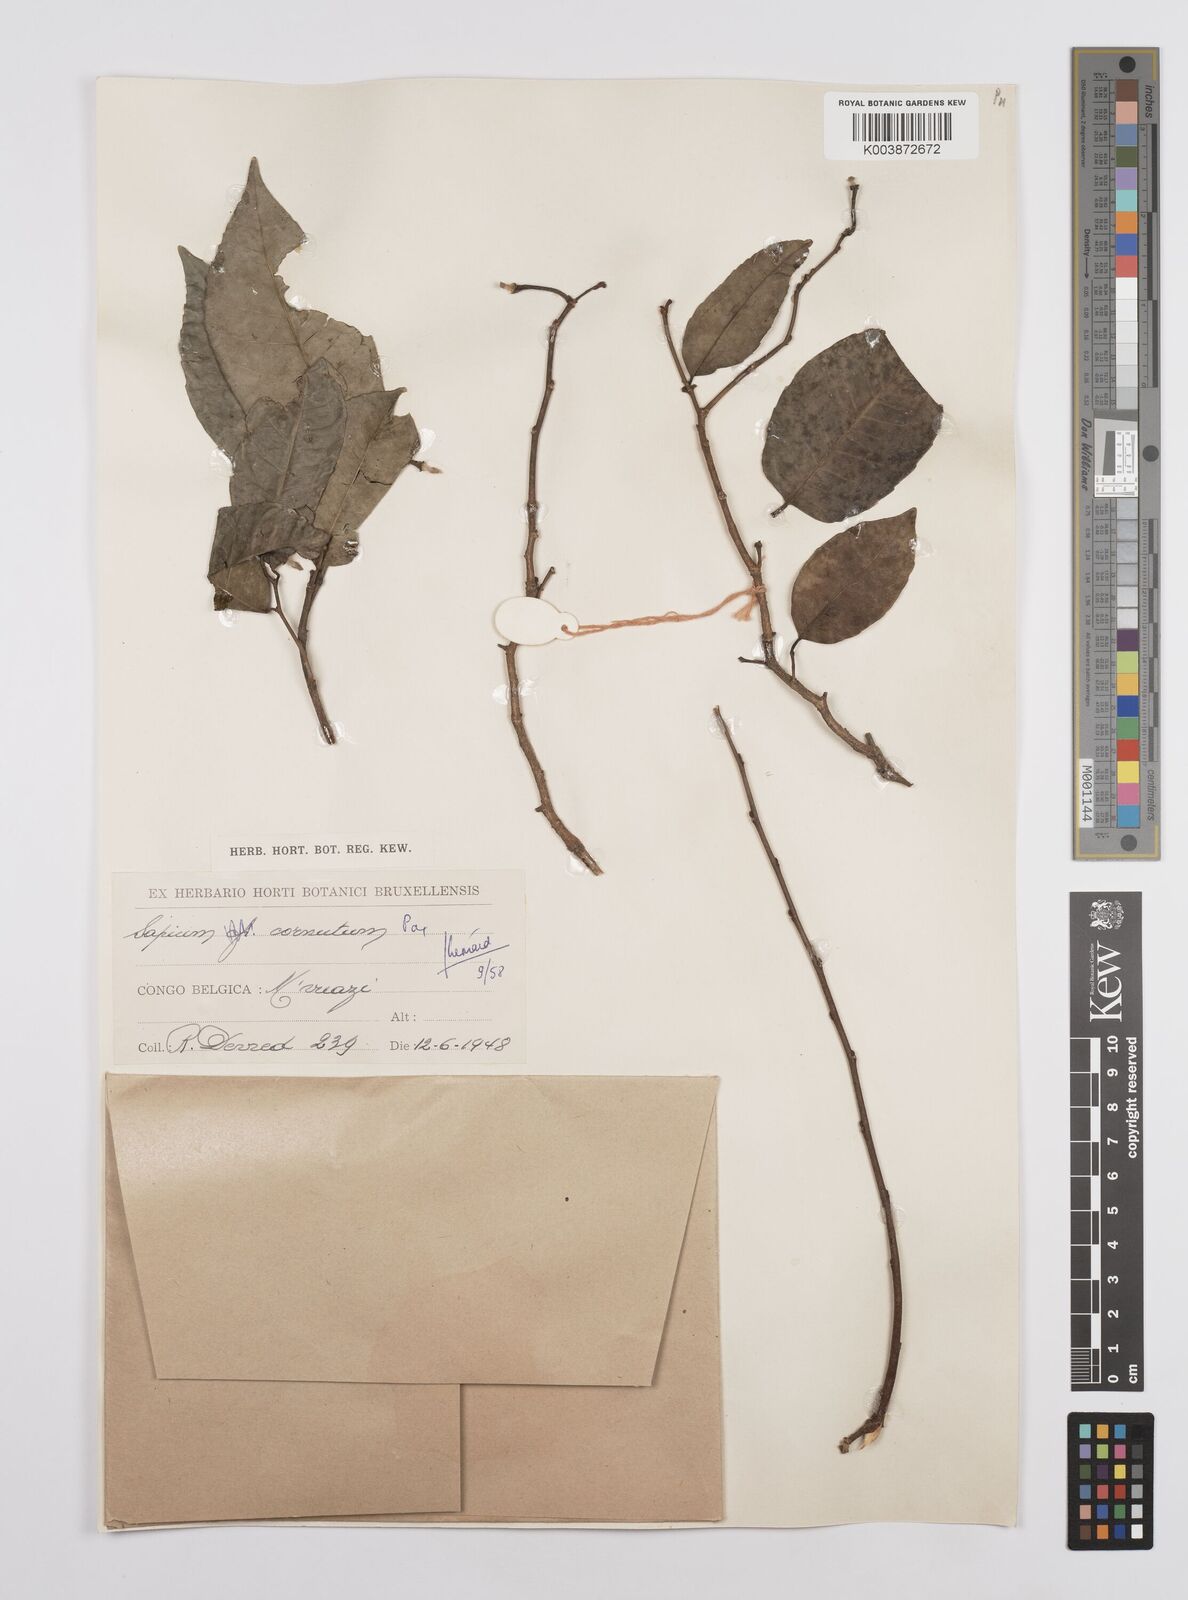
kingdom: Plantae
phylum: Tracheophyta
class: Magnoliopsida
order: Malpighiales
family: Euphorbiaceae
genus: Sclerocroton
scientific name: Sclerocroton cornutus
